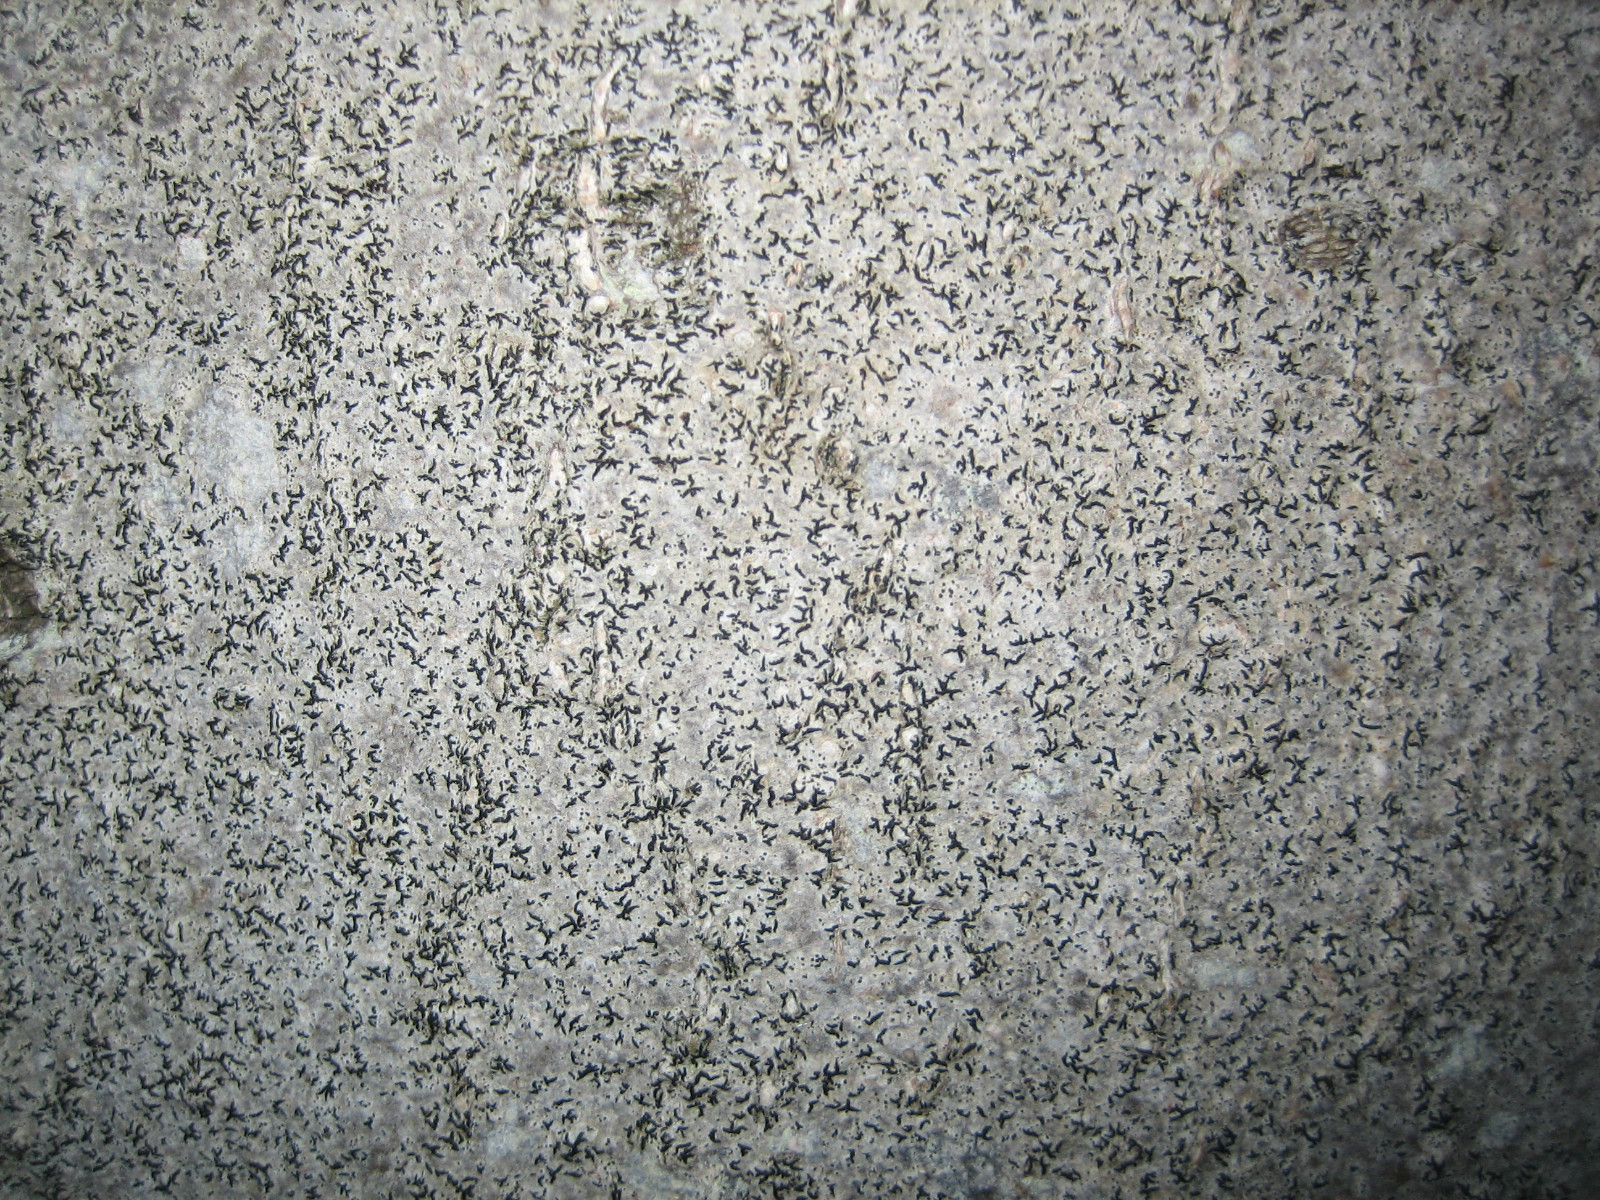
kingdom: Fungi
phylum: Ascomycota
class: Arthoniomycetes
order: Arthoniales
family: Opegraphaceae
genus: Opegrapha
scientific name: Opegrapha niveoatra
